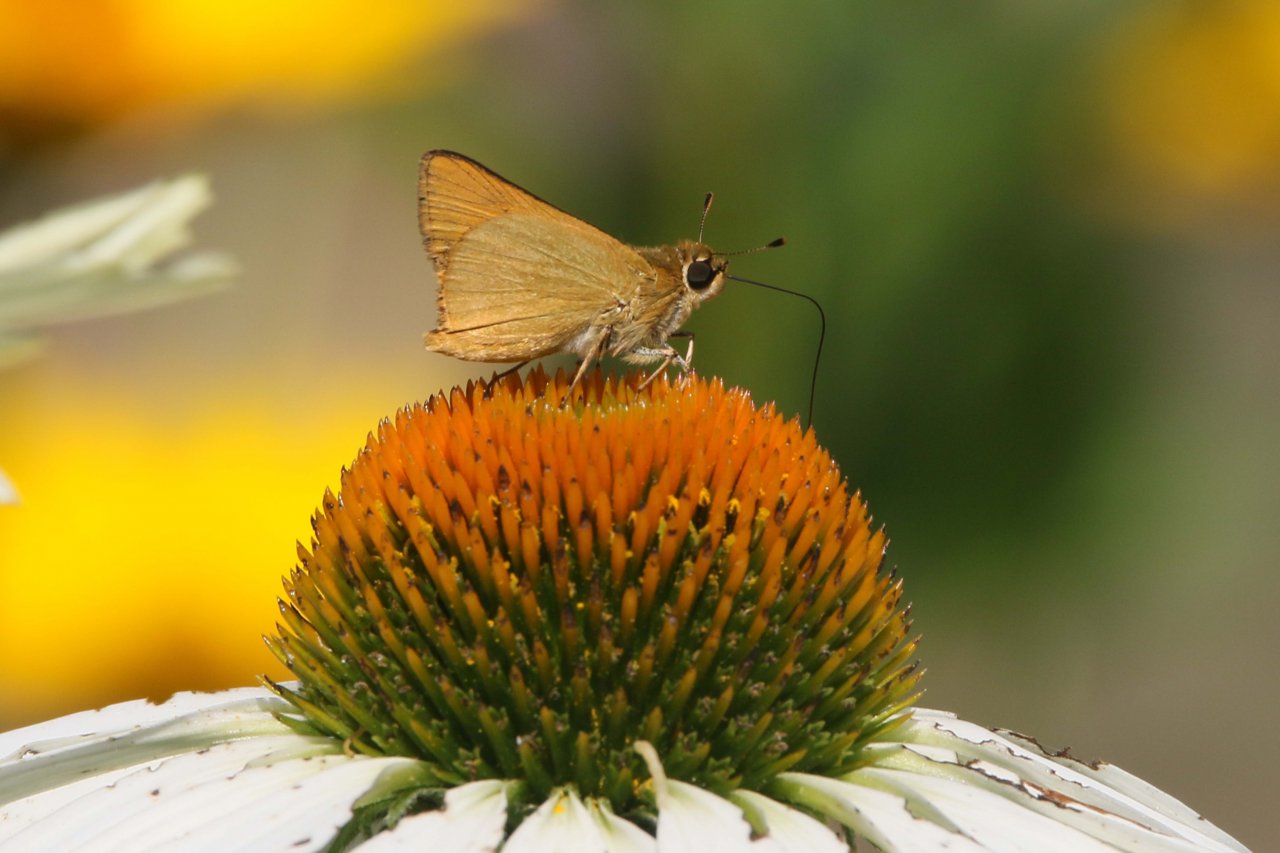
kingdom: Animalia
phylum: Arthropoda
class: Insecta
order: Lepidoptera
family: Hesperiidae
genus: Atrytone
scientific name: Atrytone delaware
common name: Delaware Skipper
